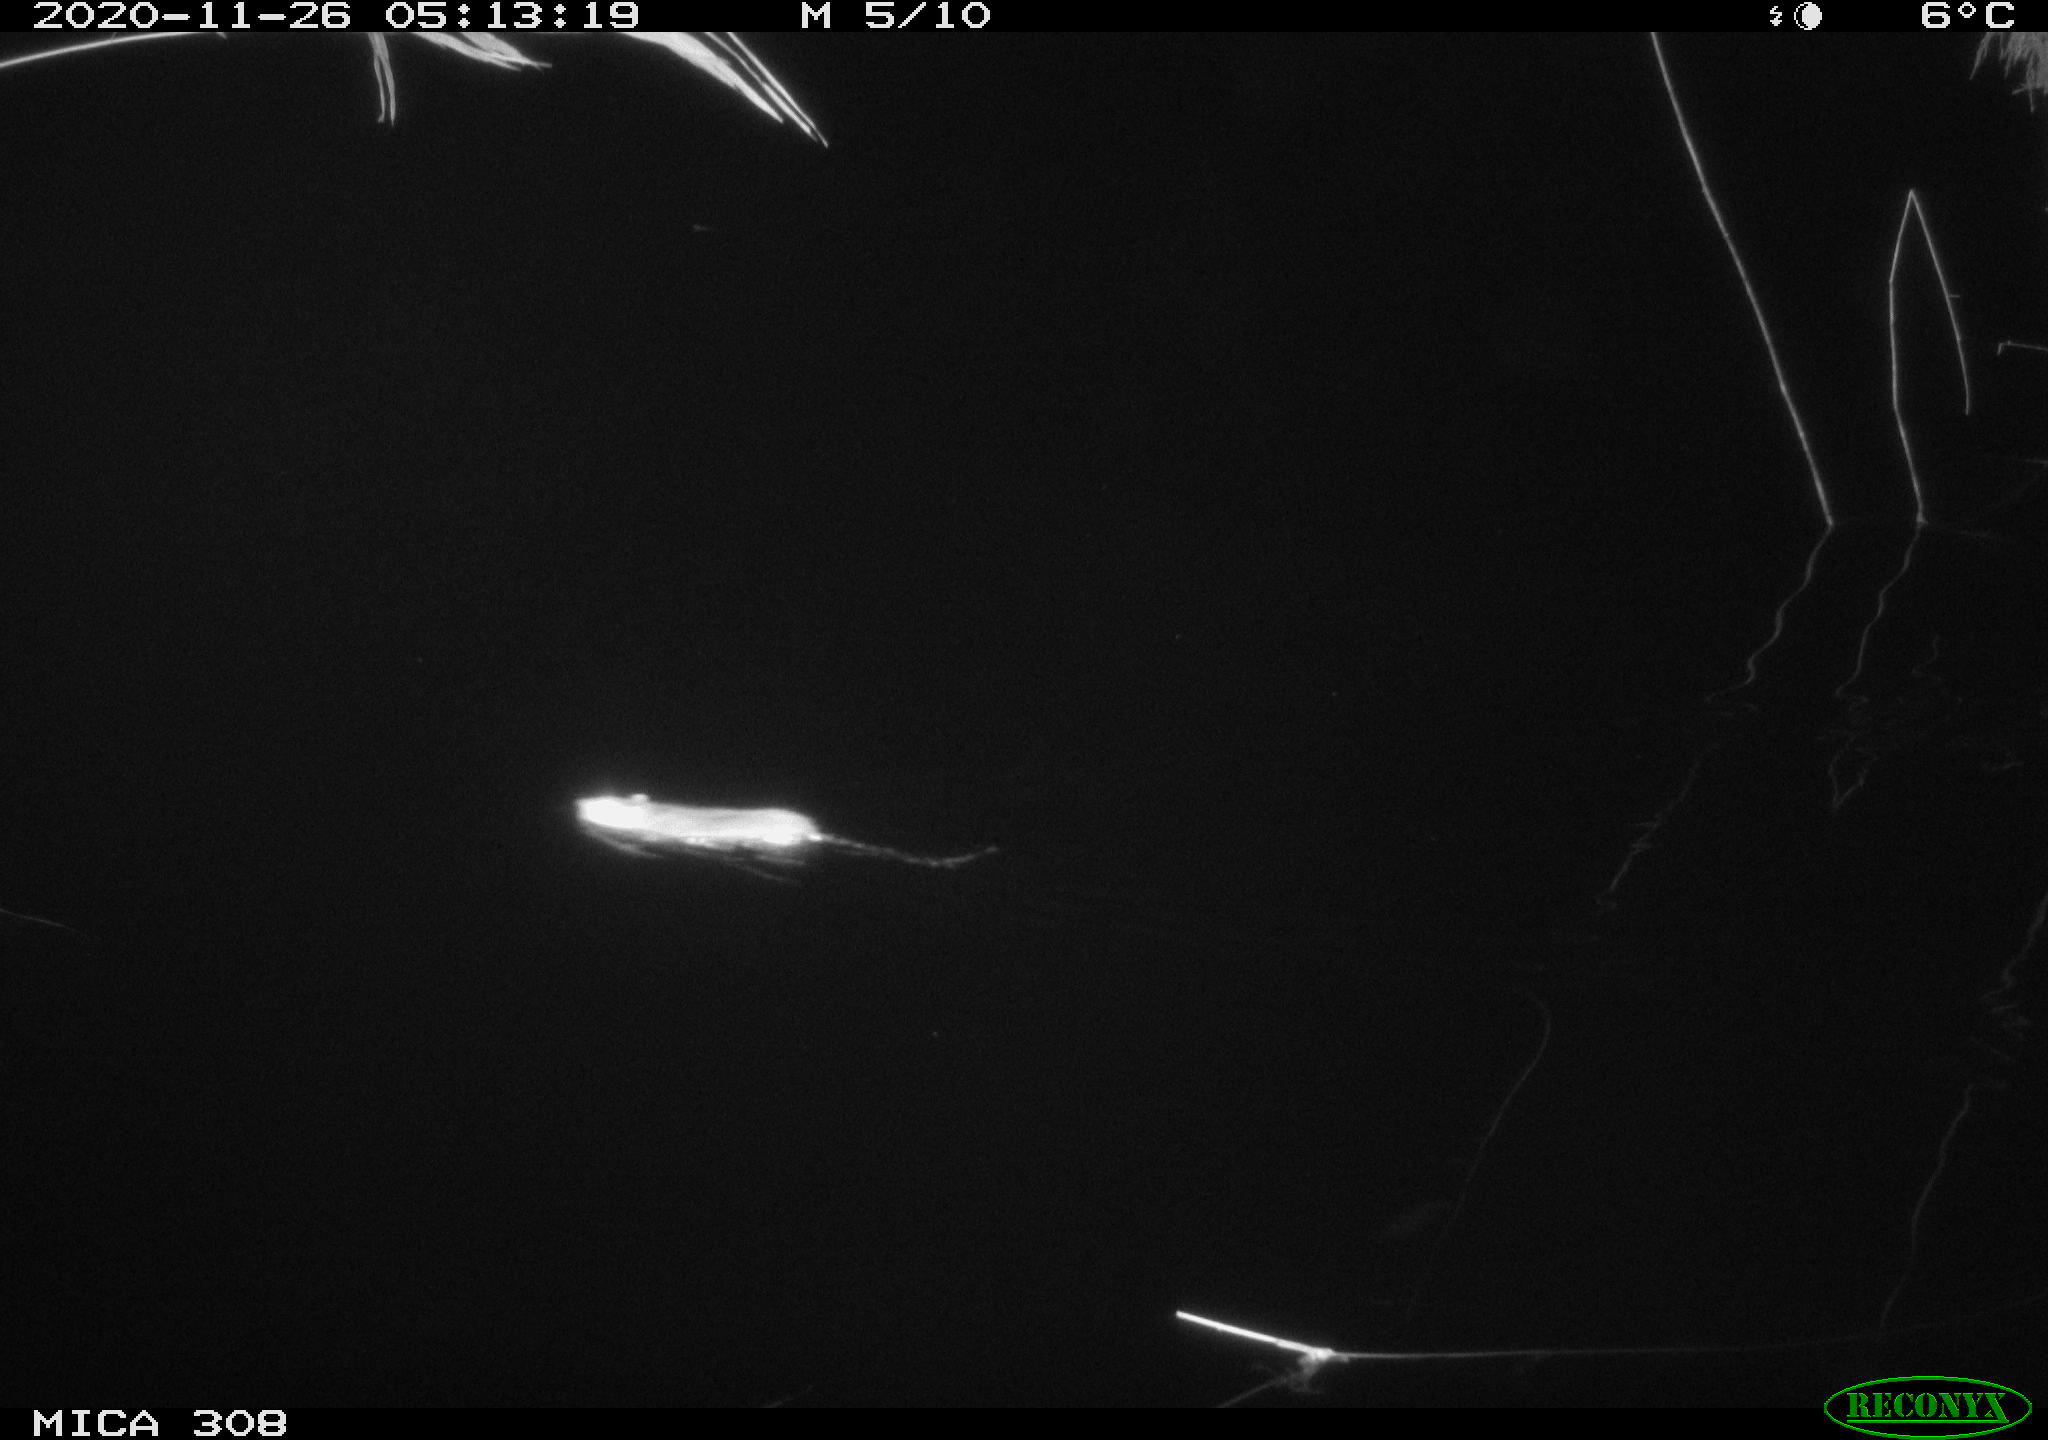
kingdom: Animalia
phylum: Chordata
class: Mammalia
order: Rodentia
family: Muridae
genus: Rattus
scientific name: Rattus norvegicus
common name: Brown rat
